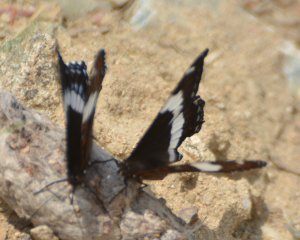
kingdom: Animalia
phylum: Arthropoda
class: Insecta
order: Lepidoptera
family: Nymphalidae
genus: Limenitis
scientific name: Limenitis arthemis
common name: Red-spotted Admiral
